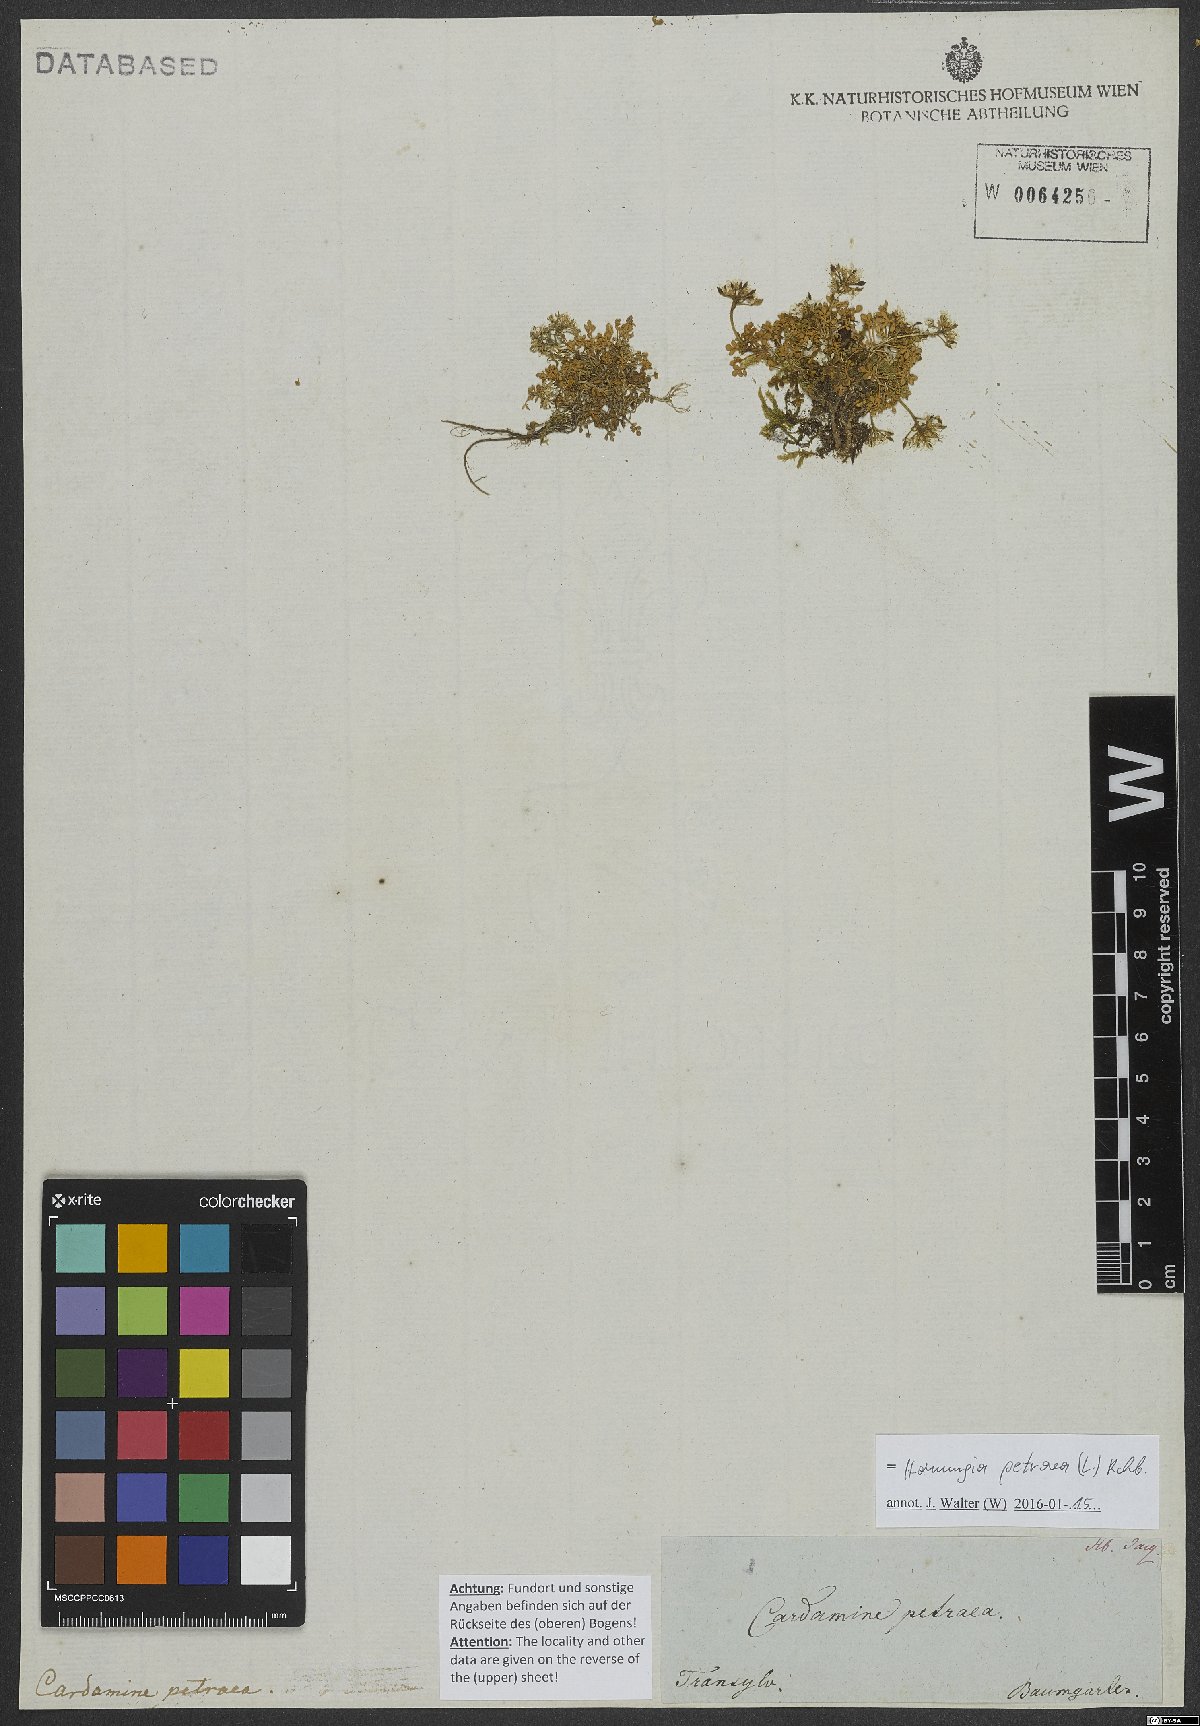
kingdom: Plantae
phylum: Tracheophyta
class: Magnoliopsida
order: Brassicales
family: Brassicaceae
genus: Hornungia
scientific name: Hornungia petraea
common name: Hutchinsia
